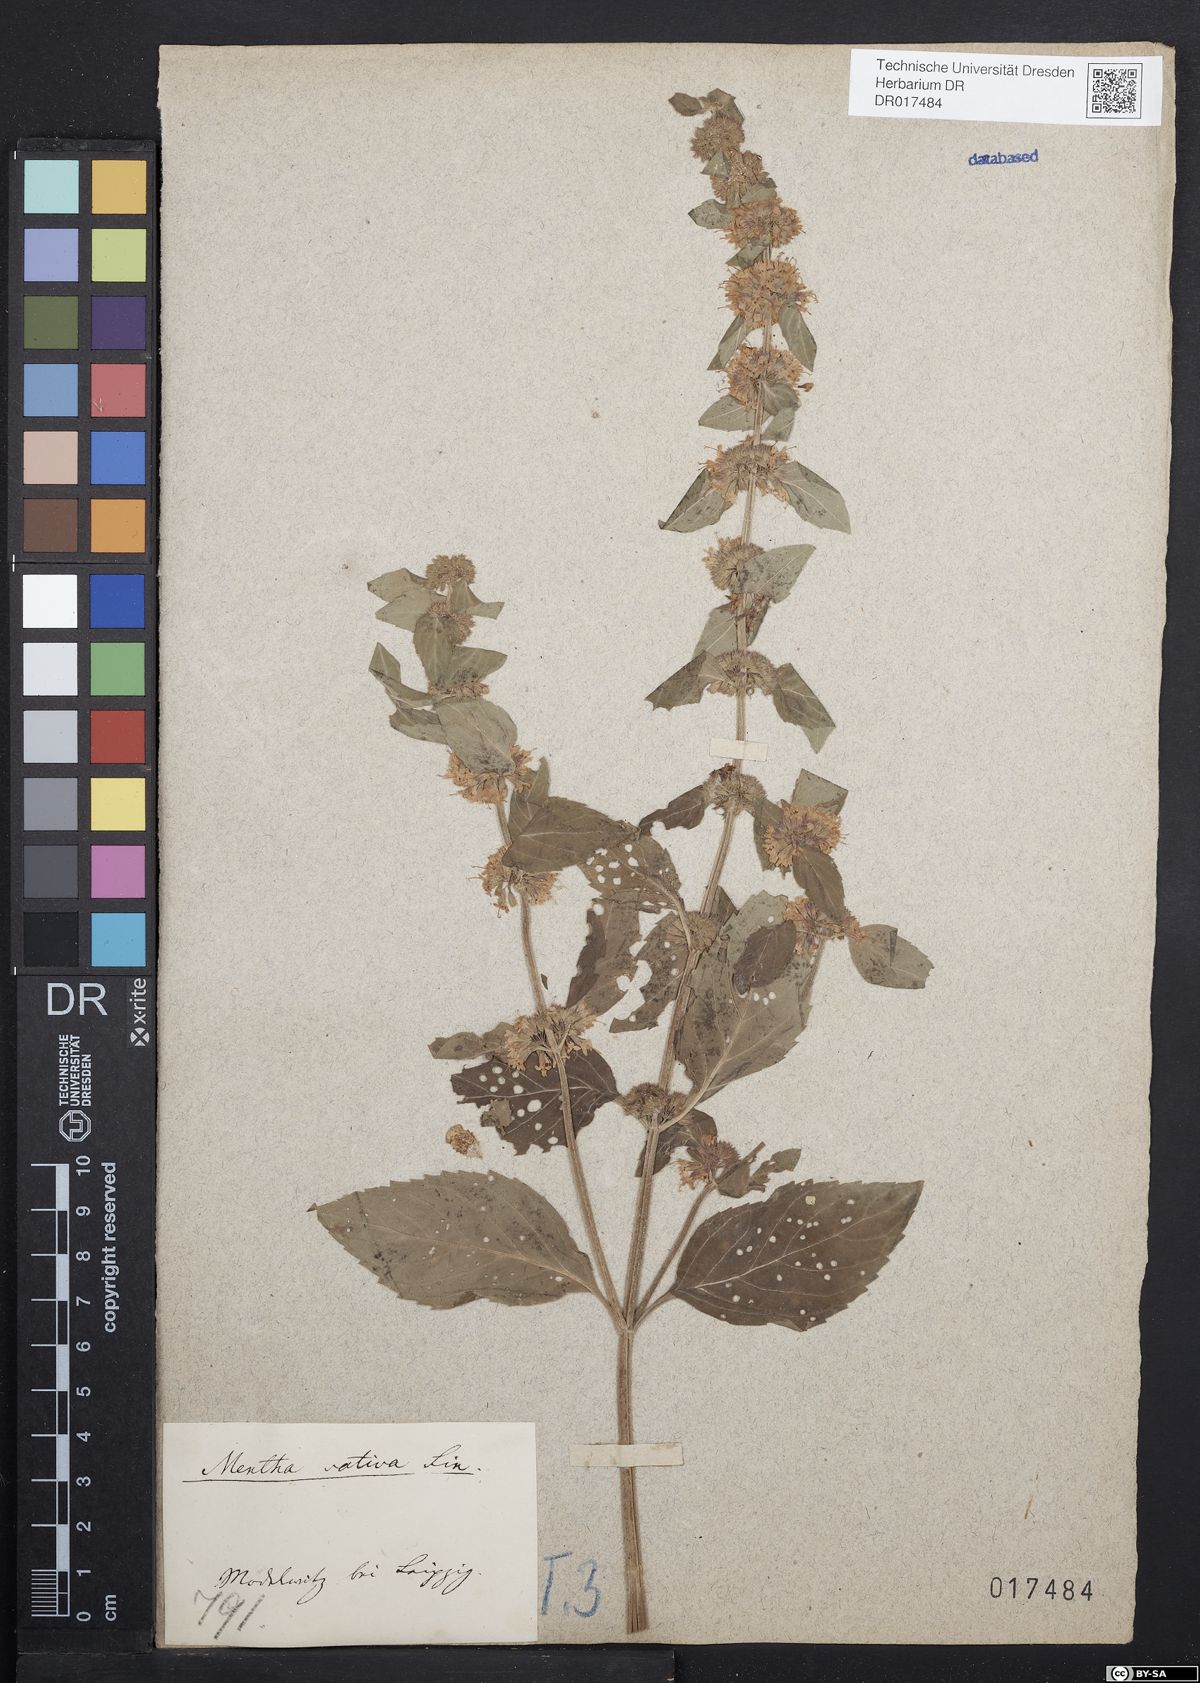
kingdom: Plantae
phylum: Tracheophyta
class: Magnoliopsida
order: Lamiales
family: Lamiaceae
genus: Mentha
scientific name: Mentha verticillata
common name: Mint
